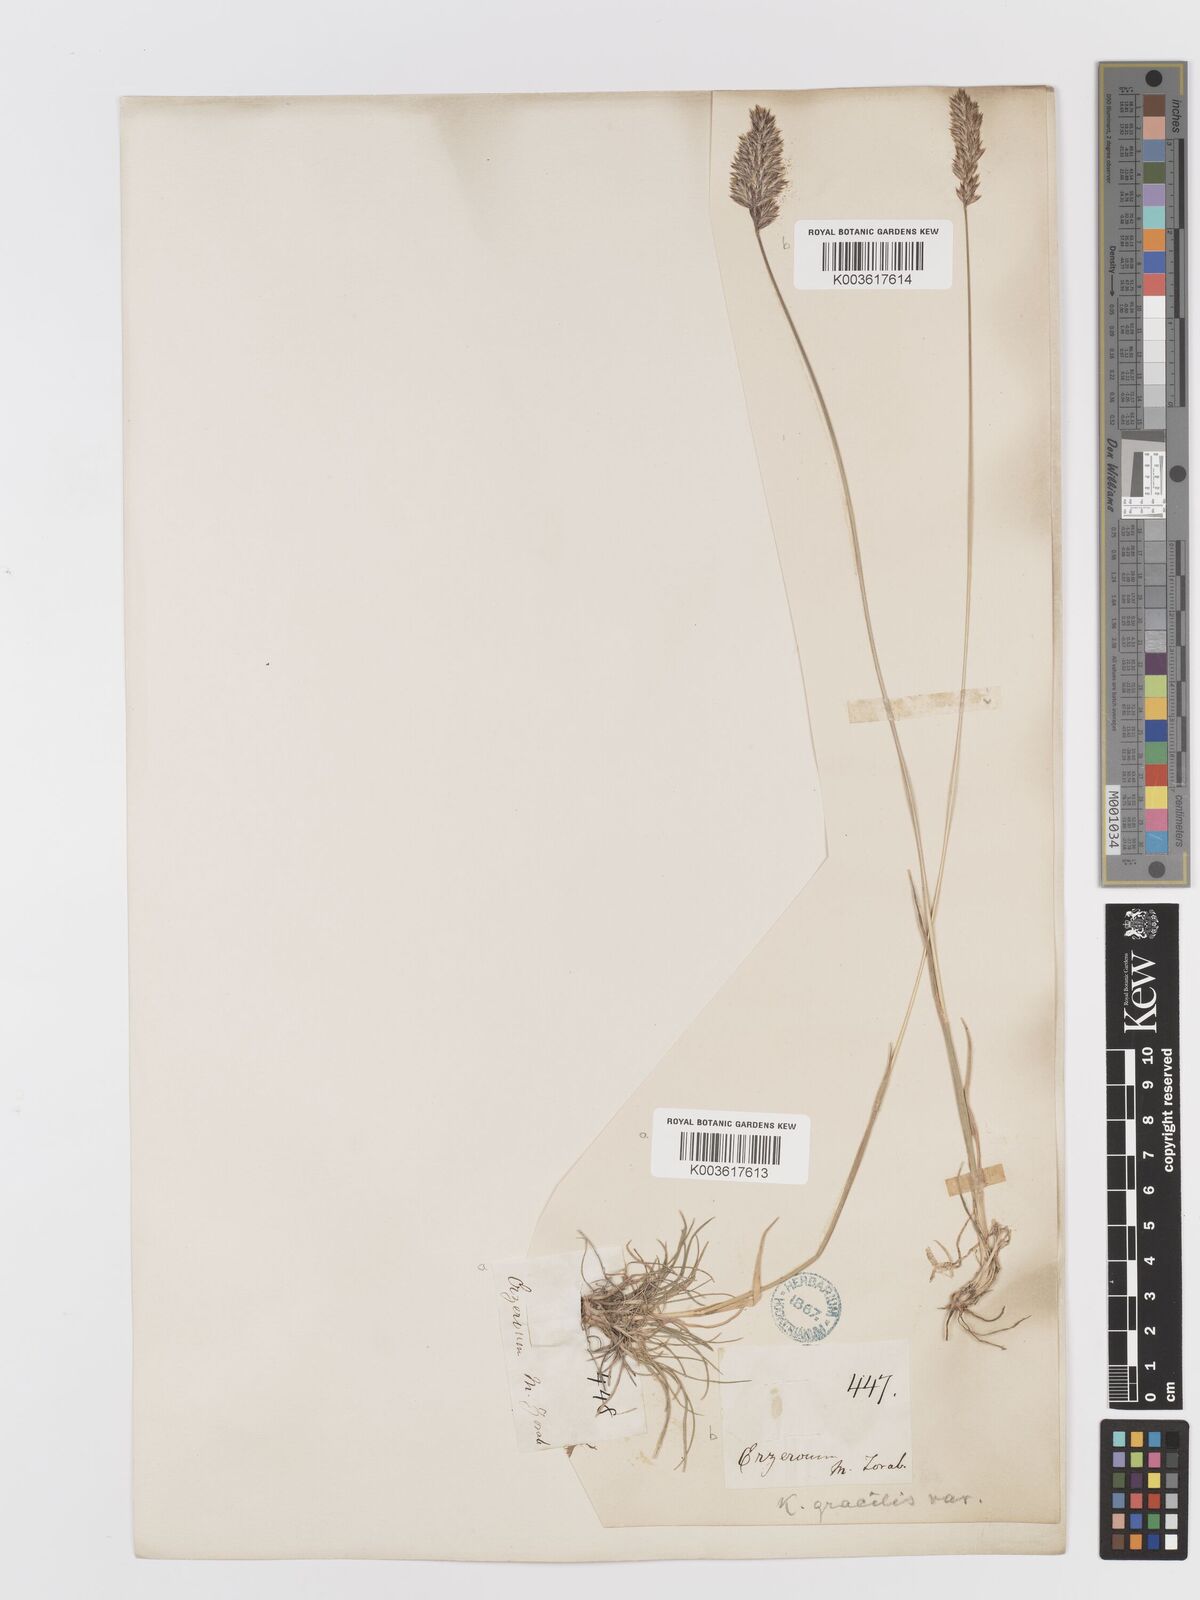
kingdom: Plantae
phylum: Tracheophyta
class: Liliopsida
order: Poales
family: Poaceae
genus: Koeleria
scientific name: Koeleria macrantha
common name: Crested hair-grass
